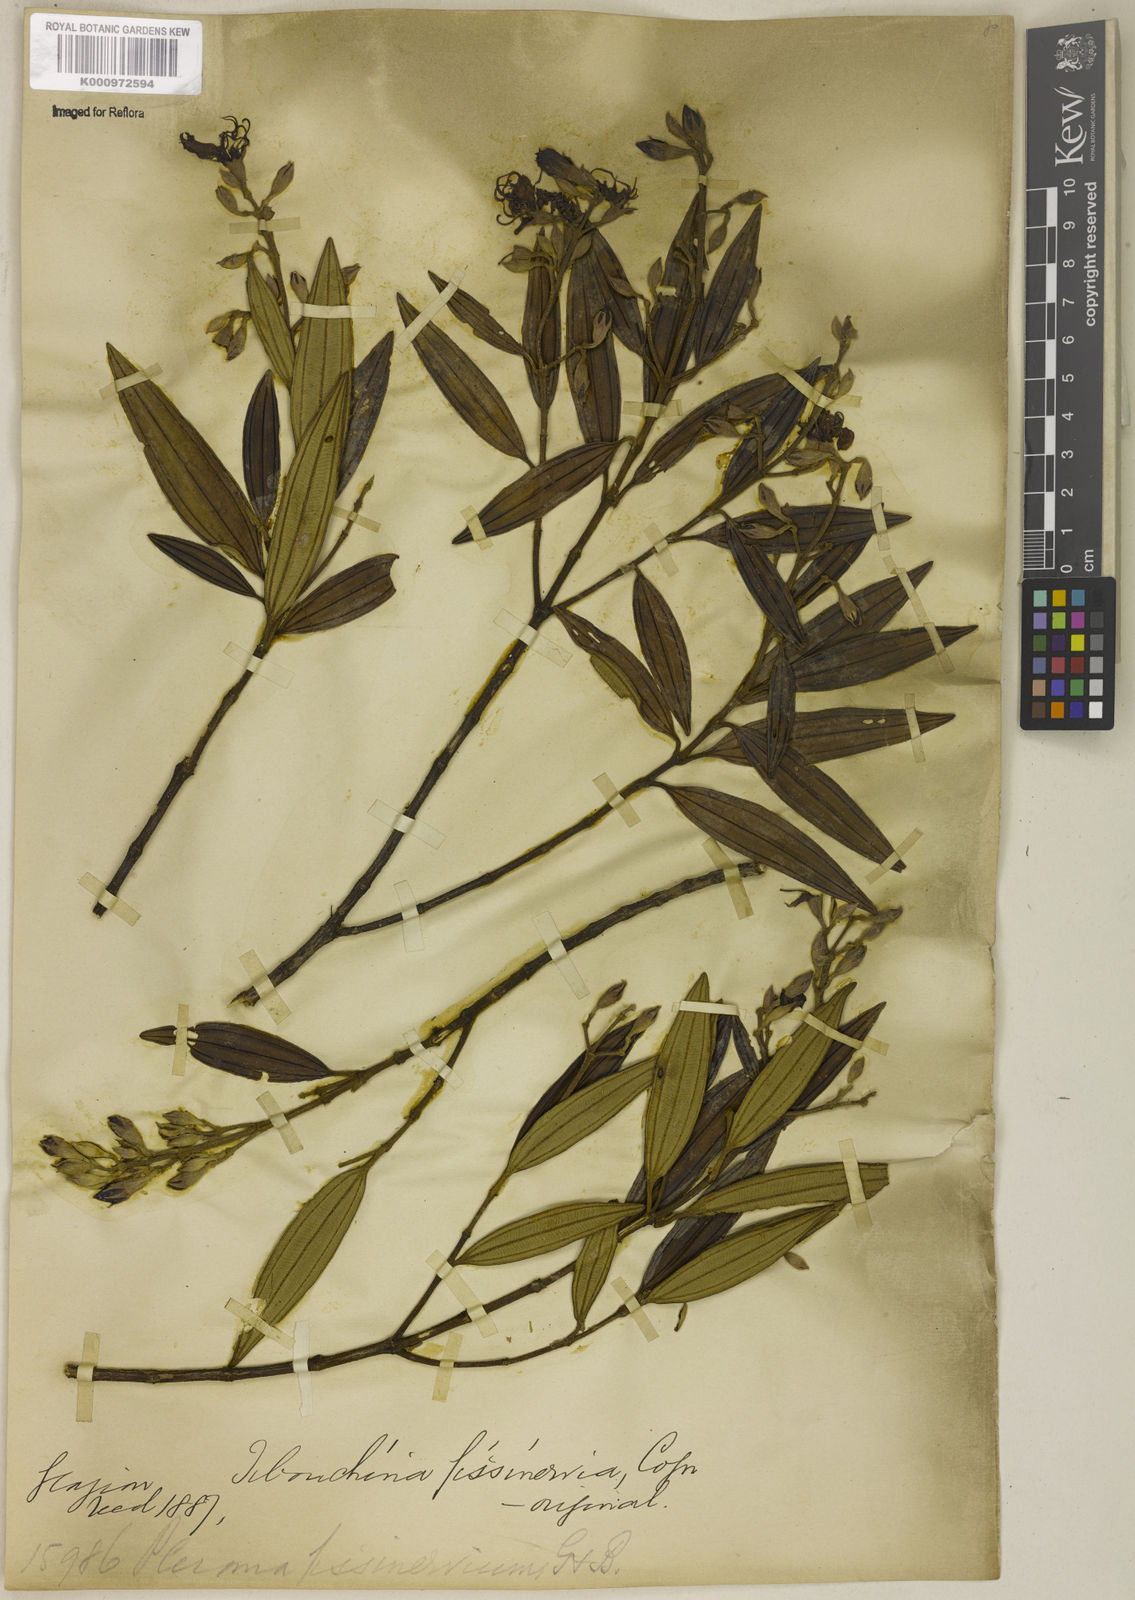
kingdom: Plantae
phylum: Tracheophyta
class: Magnoliopsida
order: Myrtales
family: Melastomataceae
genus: Pleroma
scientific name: Pleroma fissinervium
